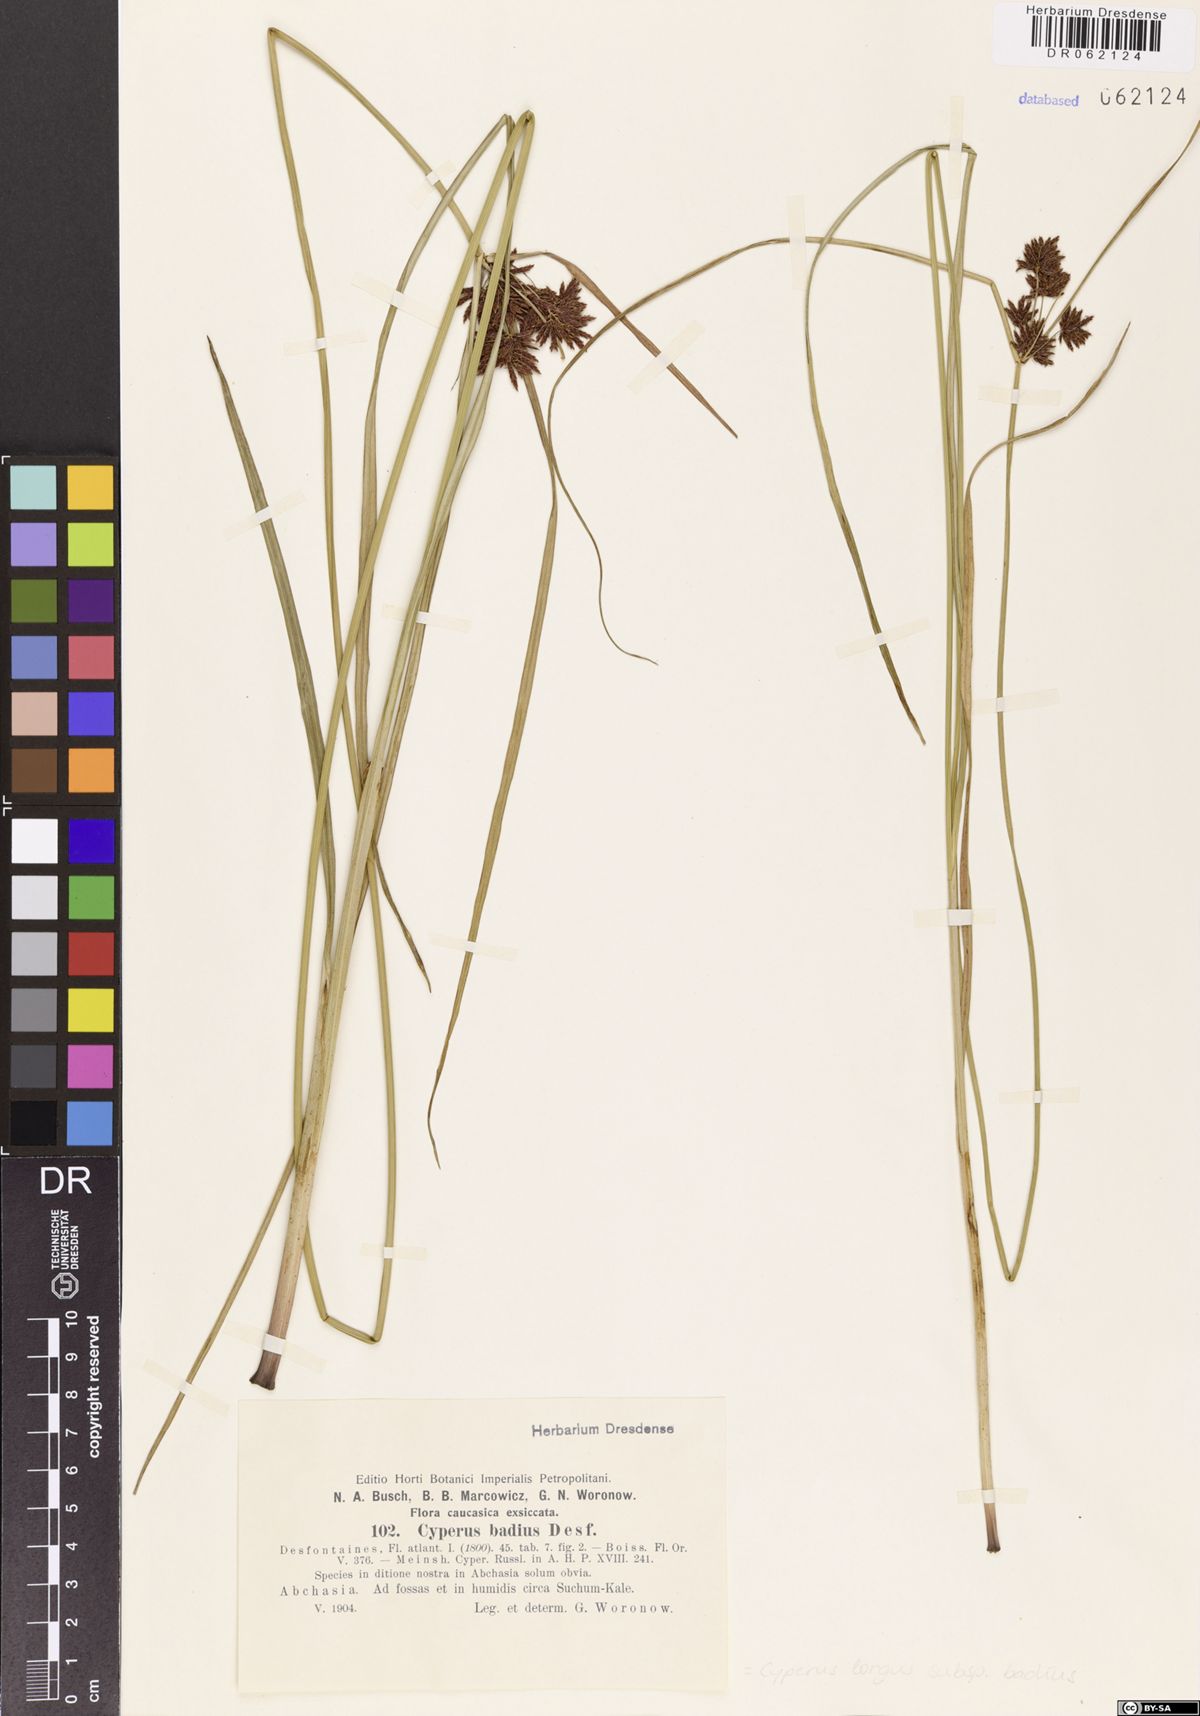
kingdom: Plantae
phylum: Tracheophyta
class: Liliopsida
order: Poales
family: Cyperaceae
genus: Cyperus
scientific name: Cyperus longus
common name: Galingale
